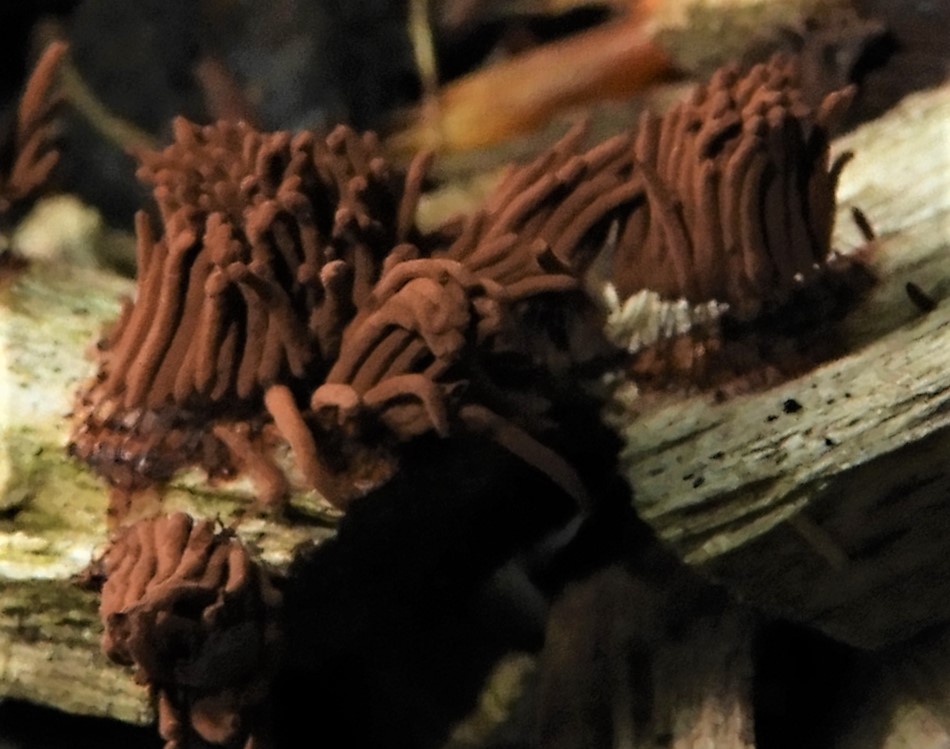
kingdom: Protozoa
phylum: Mycetozoa
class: Myxomycetes
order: Stemonitidales
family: Stemonitidaceae
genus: Stemonitis
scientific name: Stemonitis axifera
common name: rødbrun støvkølle
